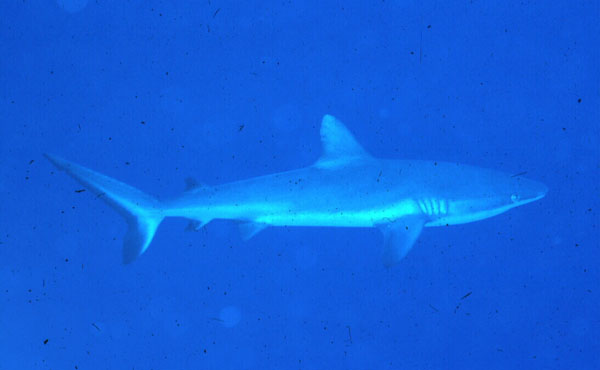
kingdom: Animalia
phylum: Chordata
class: Elasmobranchii
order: Carcharhiniformes
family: Carcharhinidae
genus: Carcharhinus
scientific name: Carcharhinus amblyrhynchos
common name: Grey reef shark
